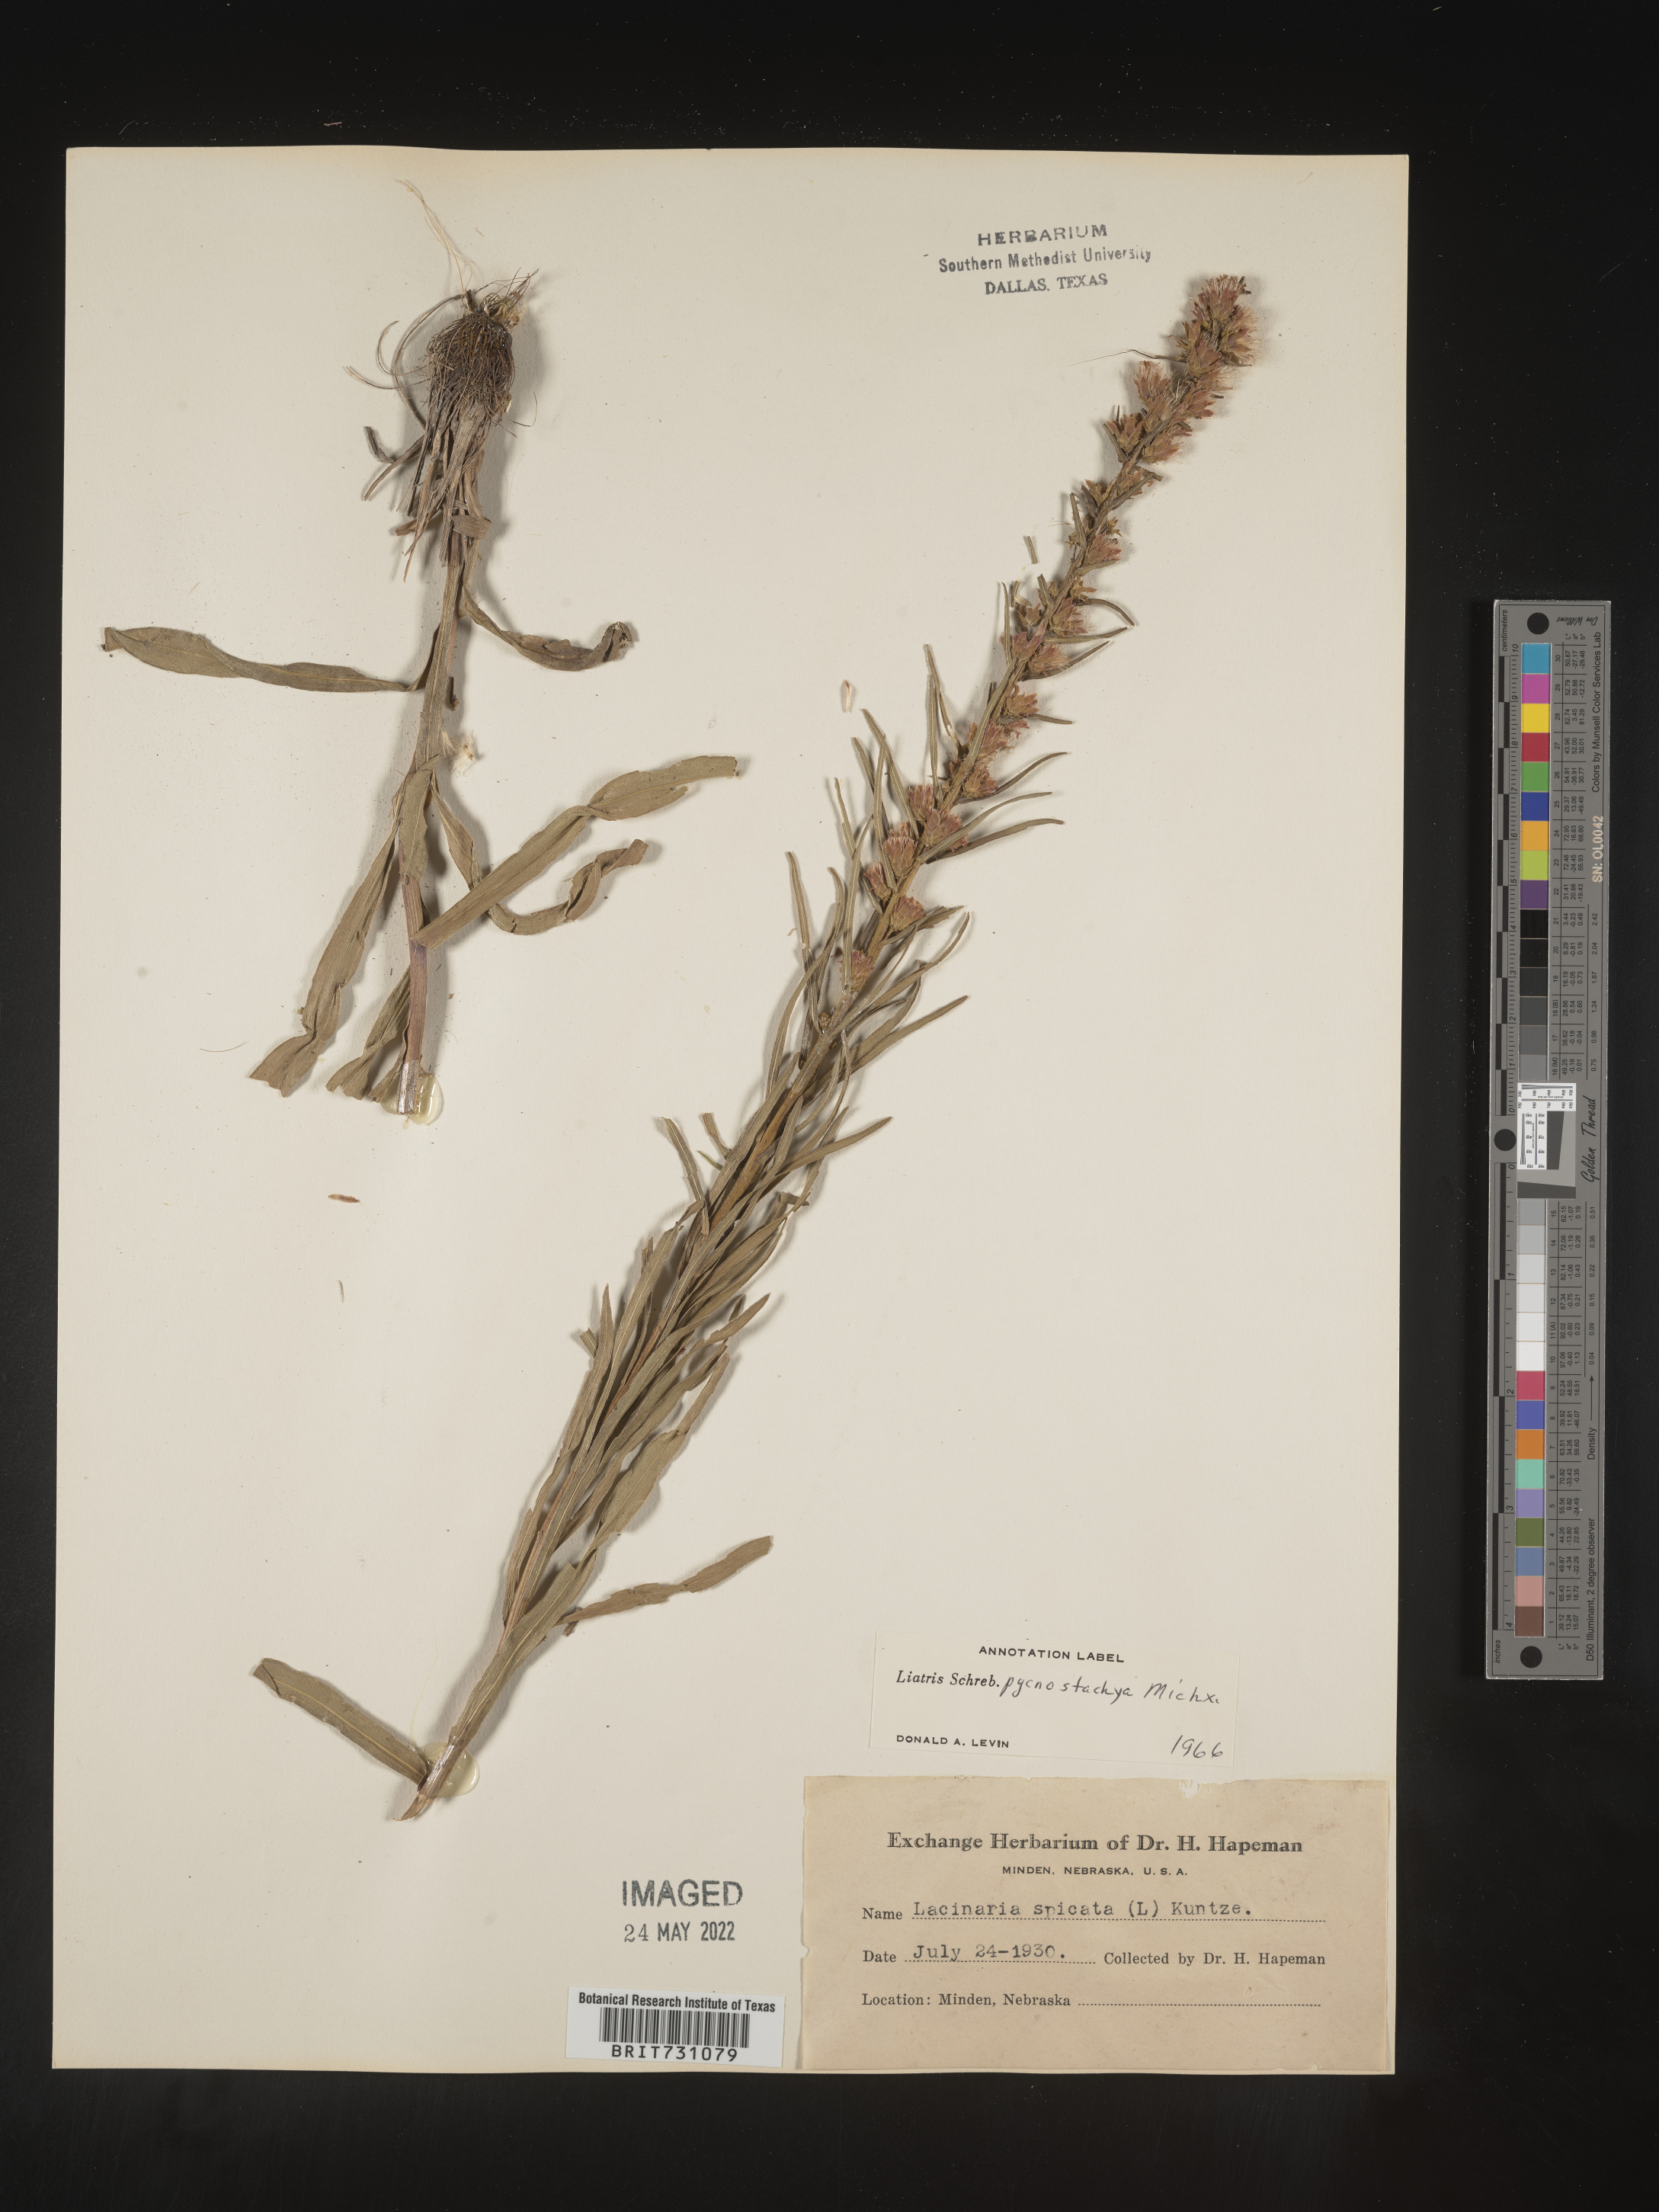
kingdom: Plantae
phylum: Tracheophyta
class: Magnoliopsida
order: Asterales
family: Asteraceae
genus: Liatris
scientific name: Liatris pycnostachya
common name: Cattail gayfeather
